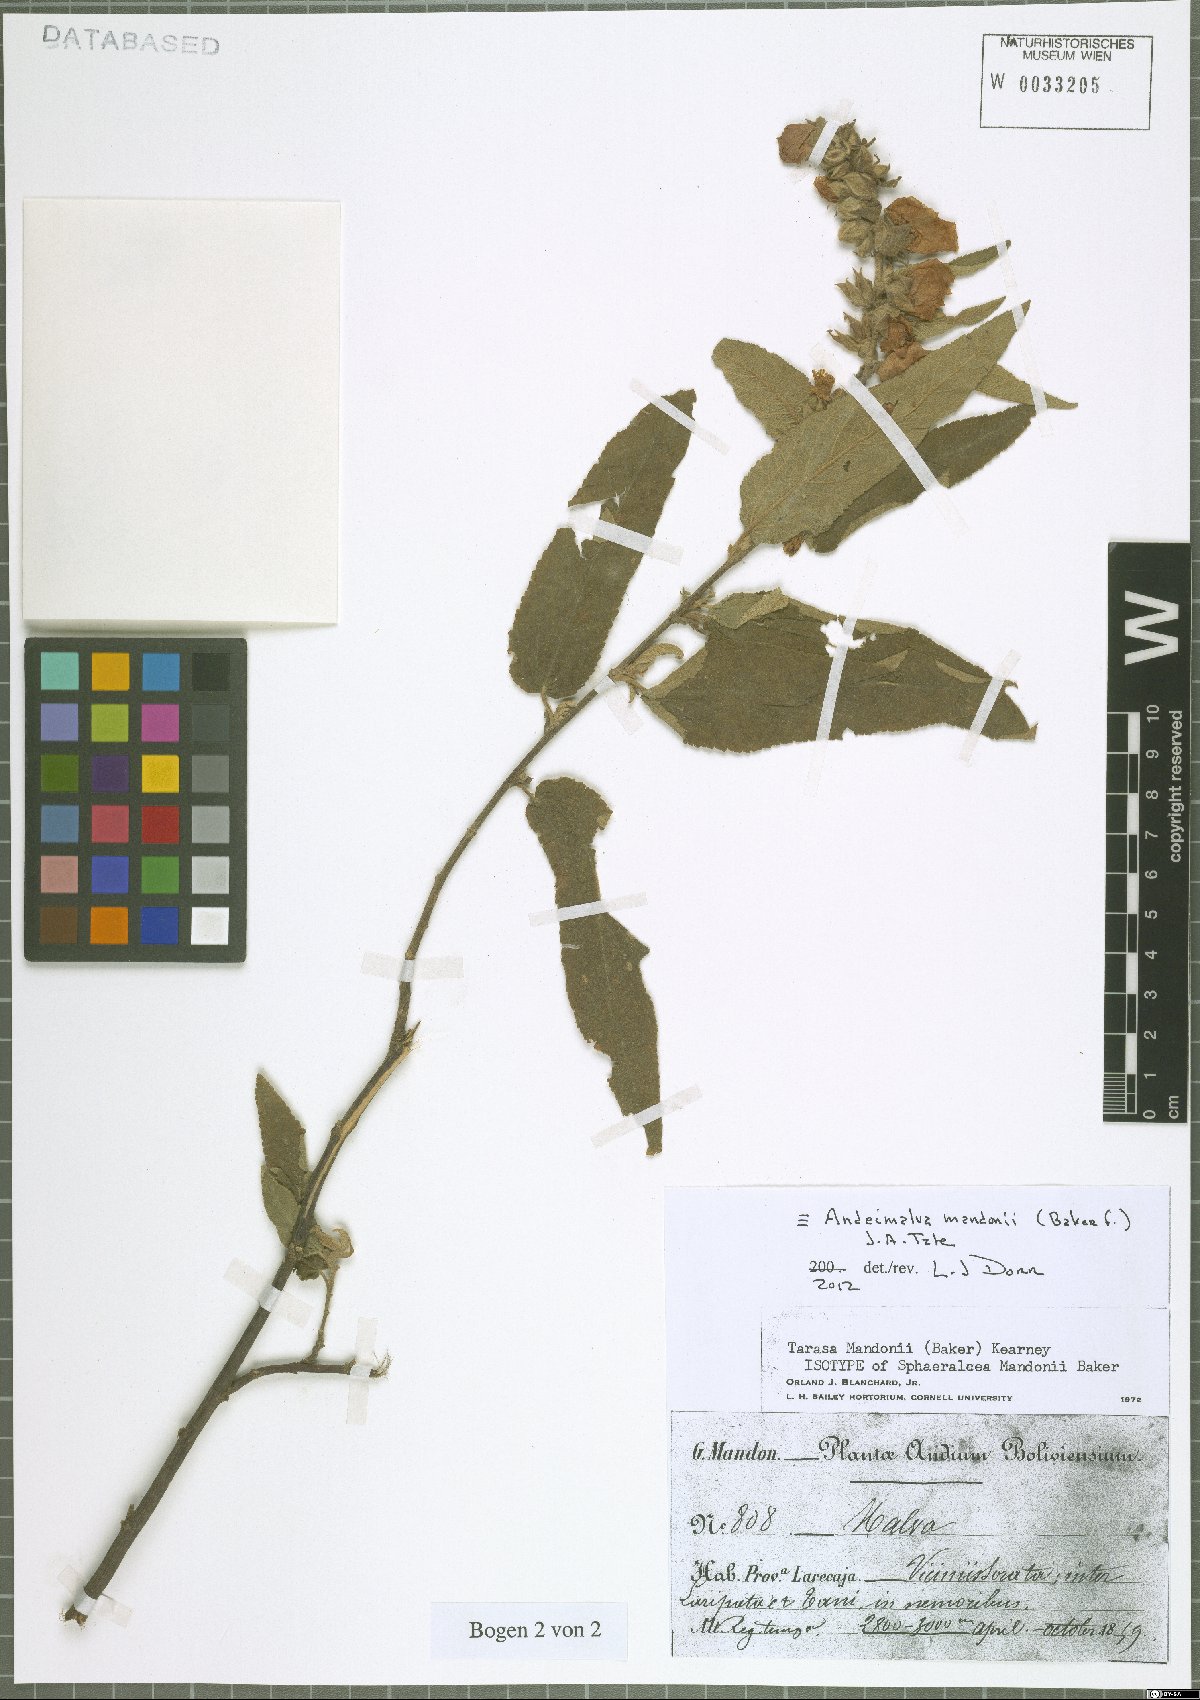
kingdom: Plantae
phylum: Tracheophyta
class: Magnoliopsida
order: Malvales
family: Malvaceae
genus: Andeimalva
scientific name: Andeimalva mandonii
